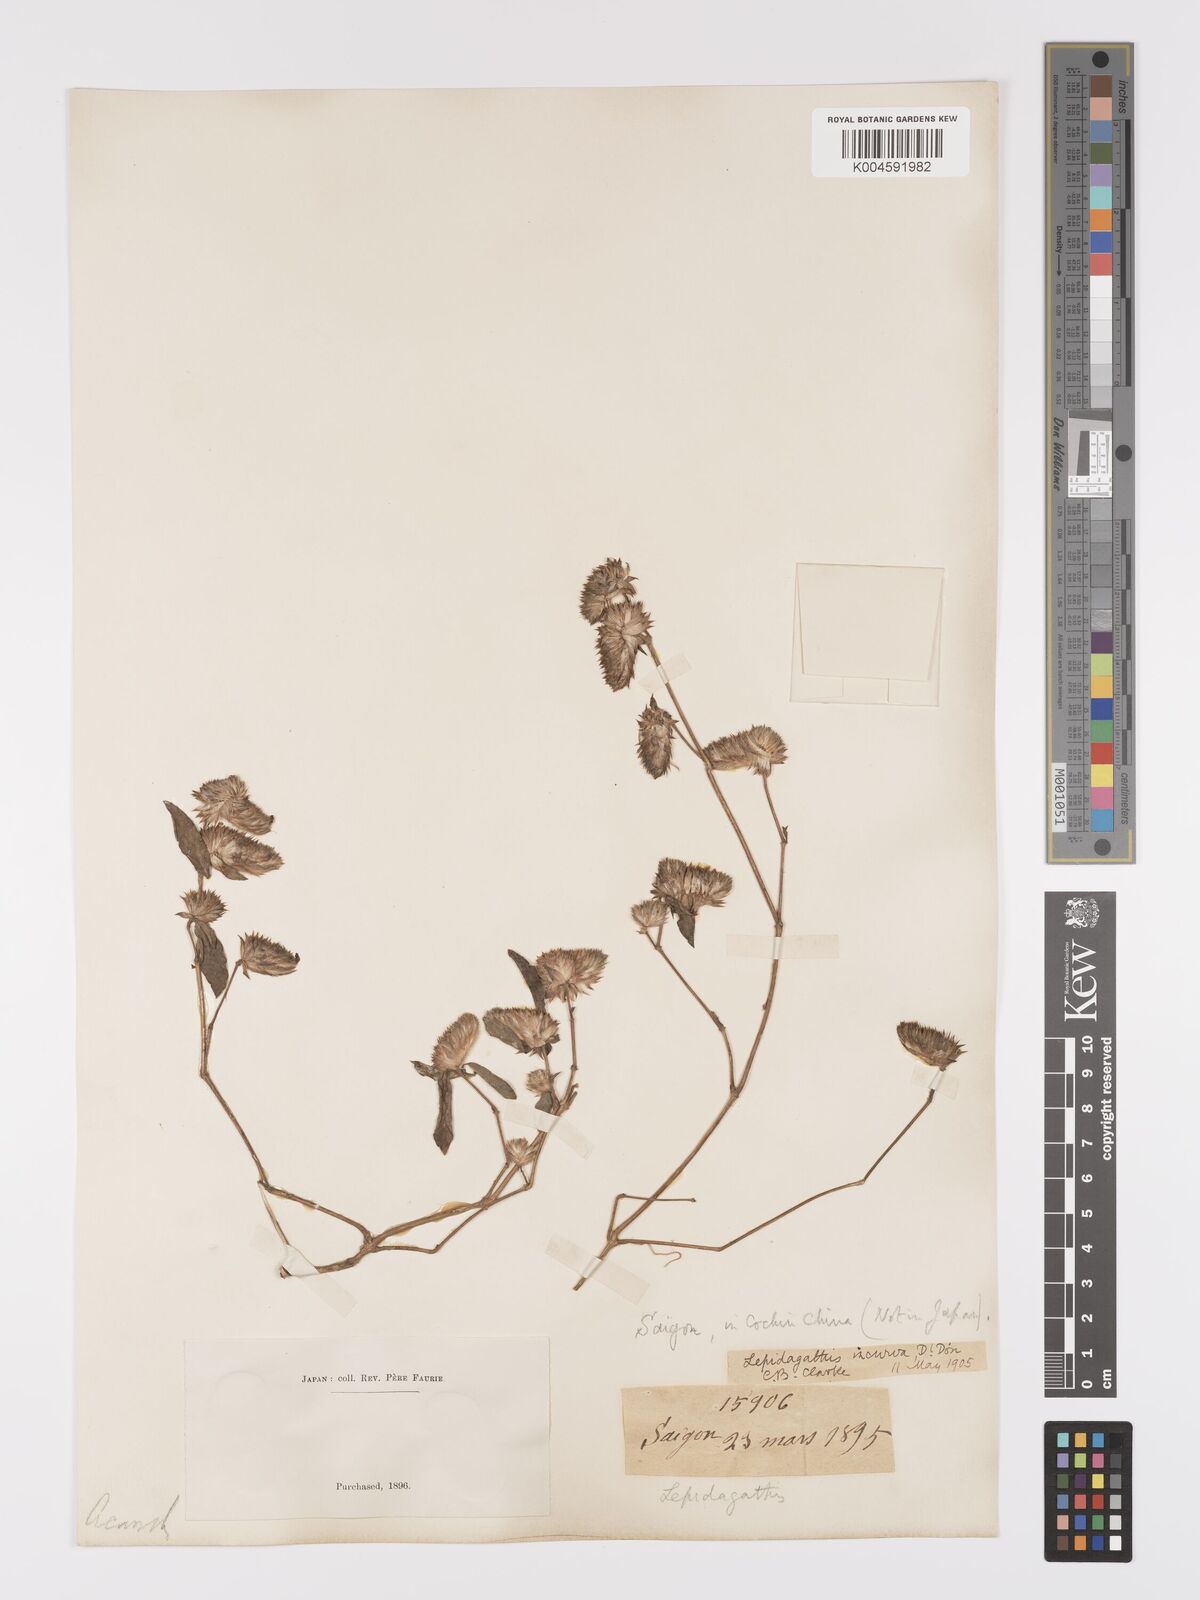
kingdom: Plantae
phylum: Tracheophyta
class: Magnoliopsida
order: Lamiales
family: Acanthaceae
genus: Lepidagathis
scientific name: Lepidagathis incurva
